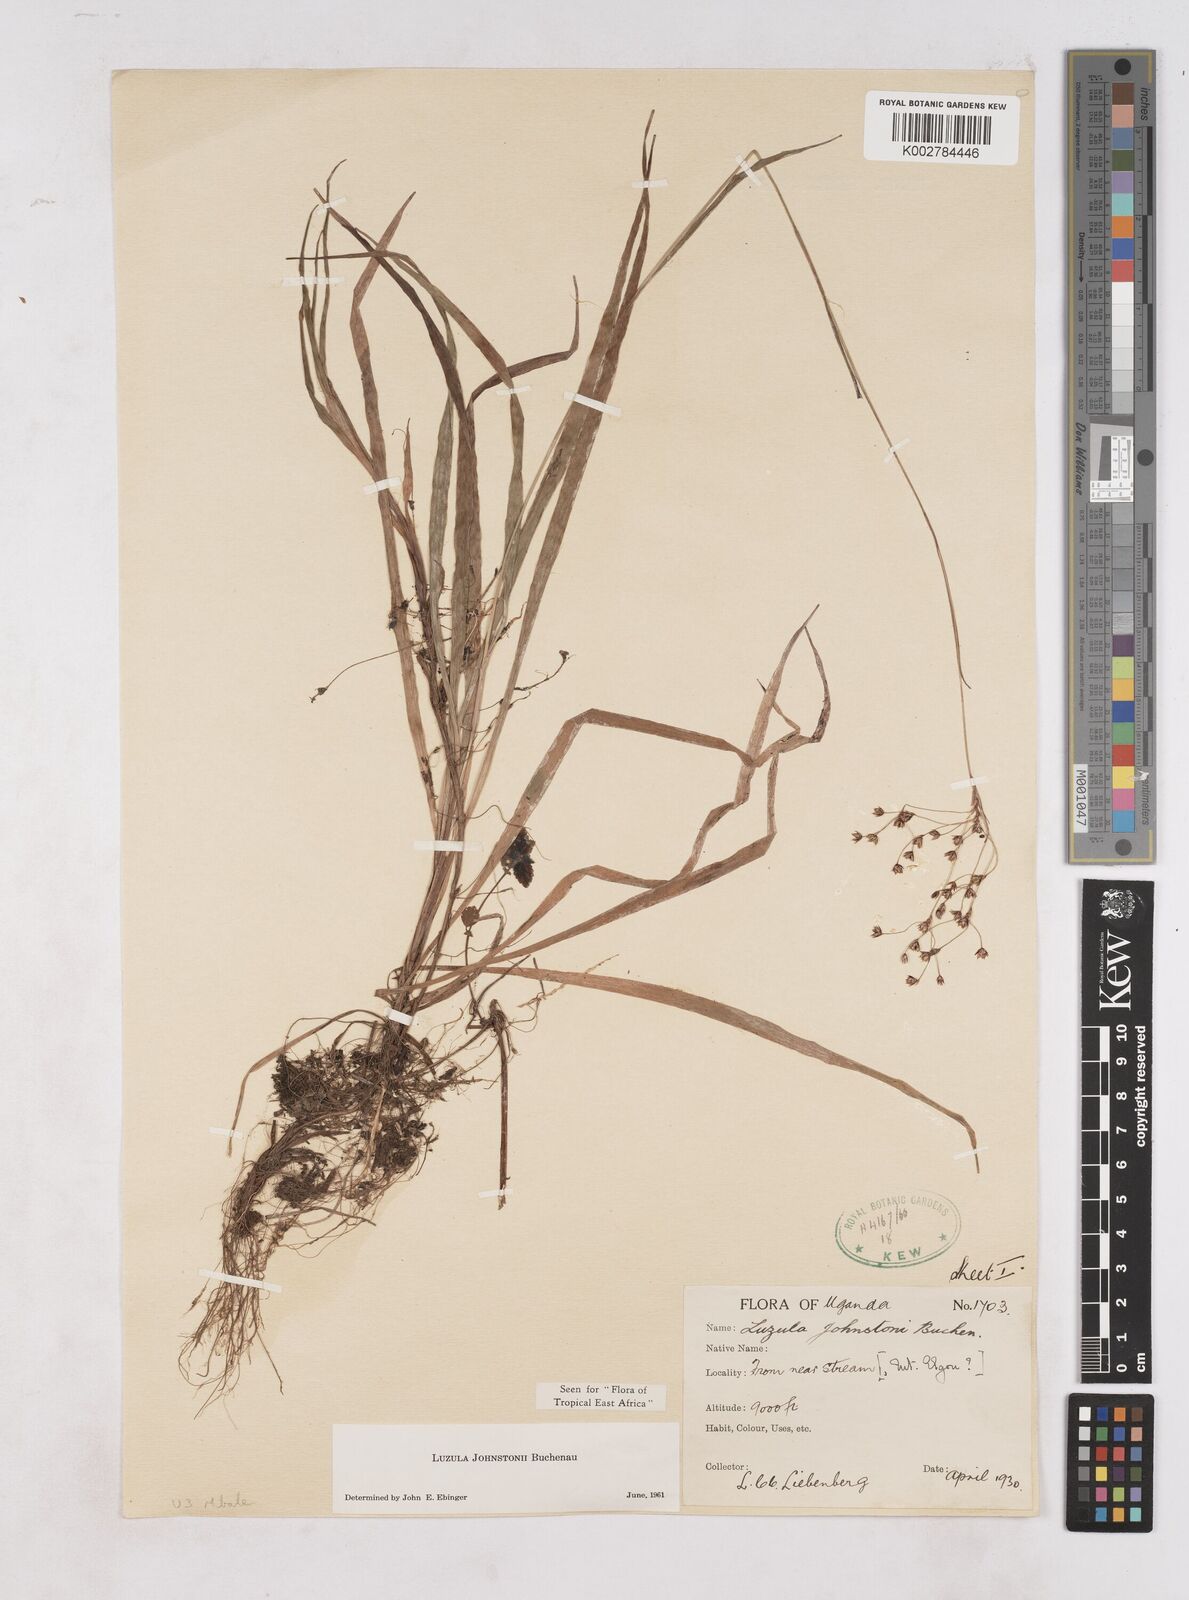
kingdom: Plantae
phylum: Tracheophyta
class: Liliopsida
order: Poales
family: Juncaceae
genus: Luzula
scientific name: Luzula johnstonii
